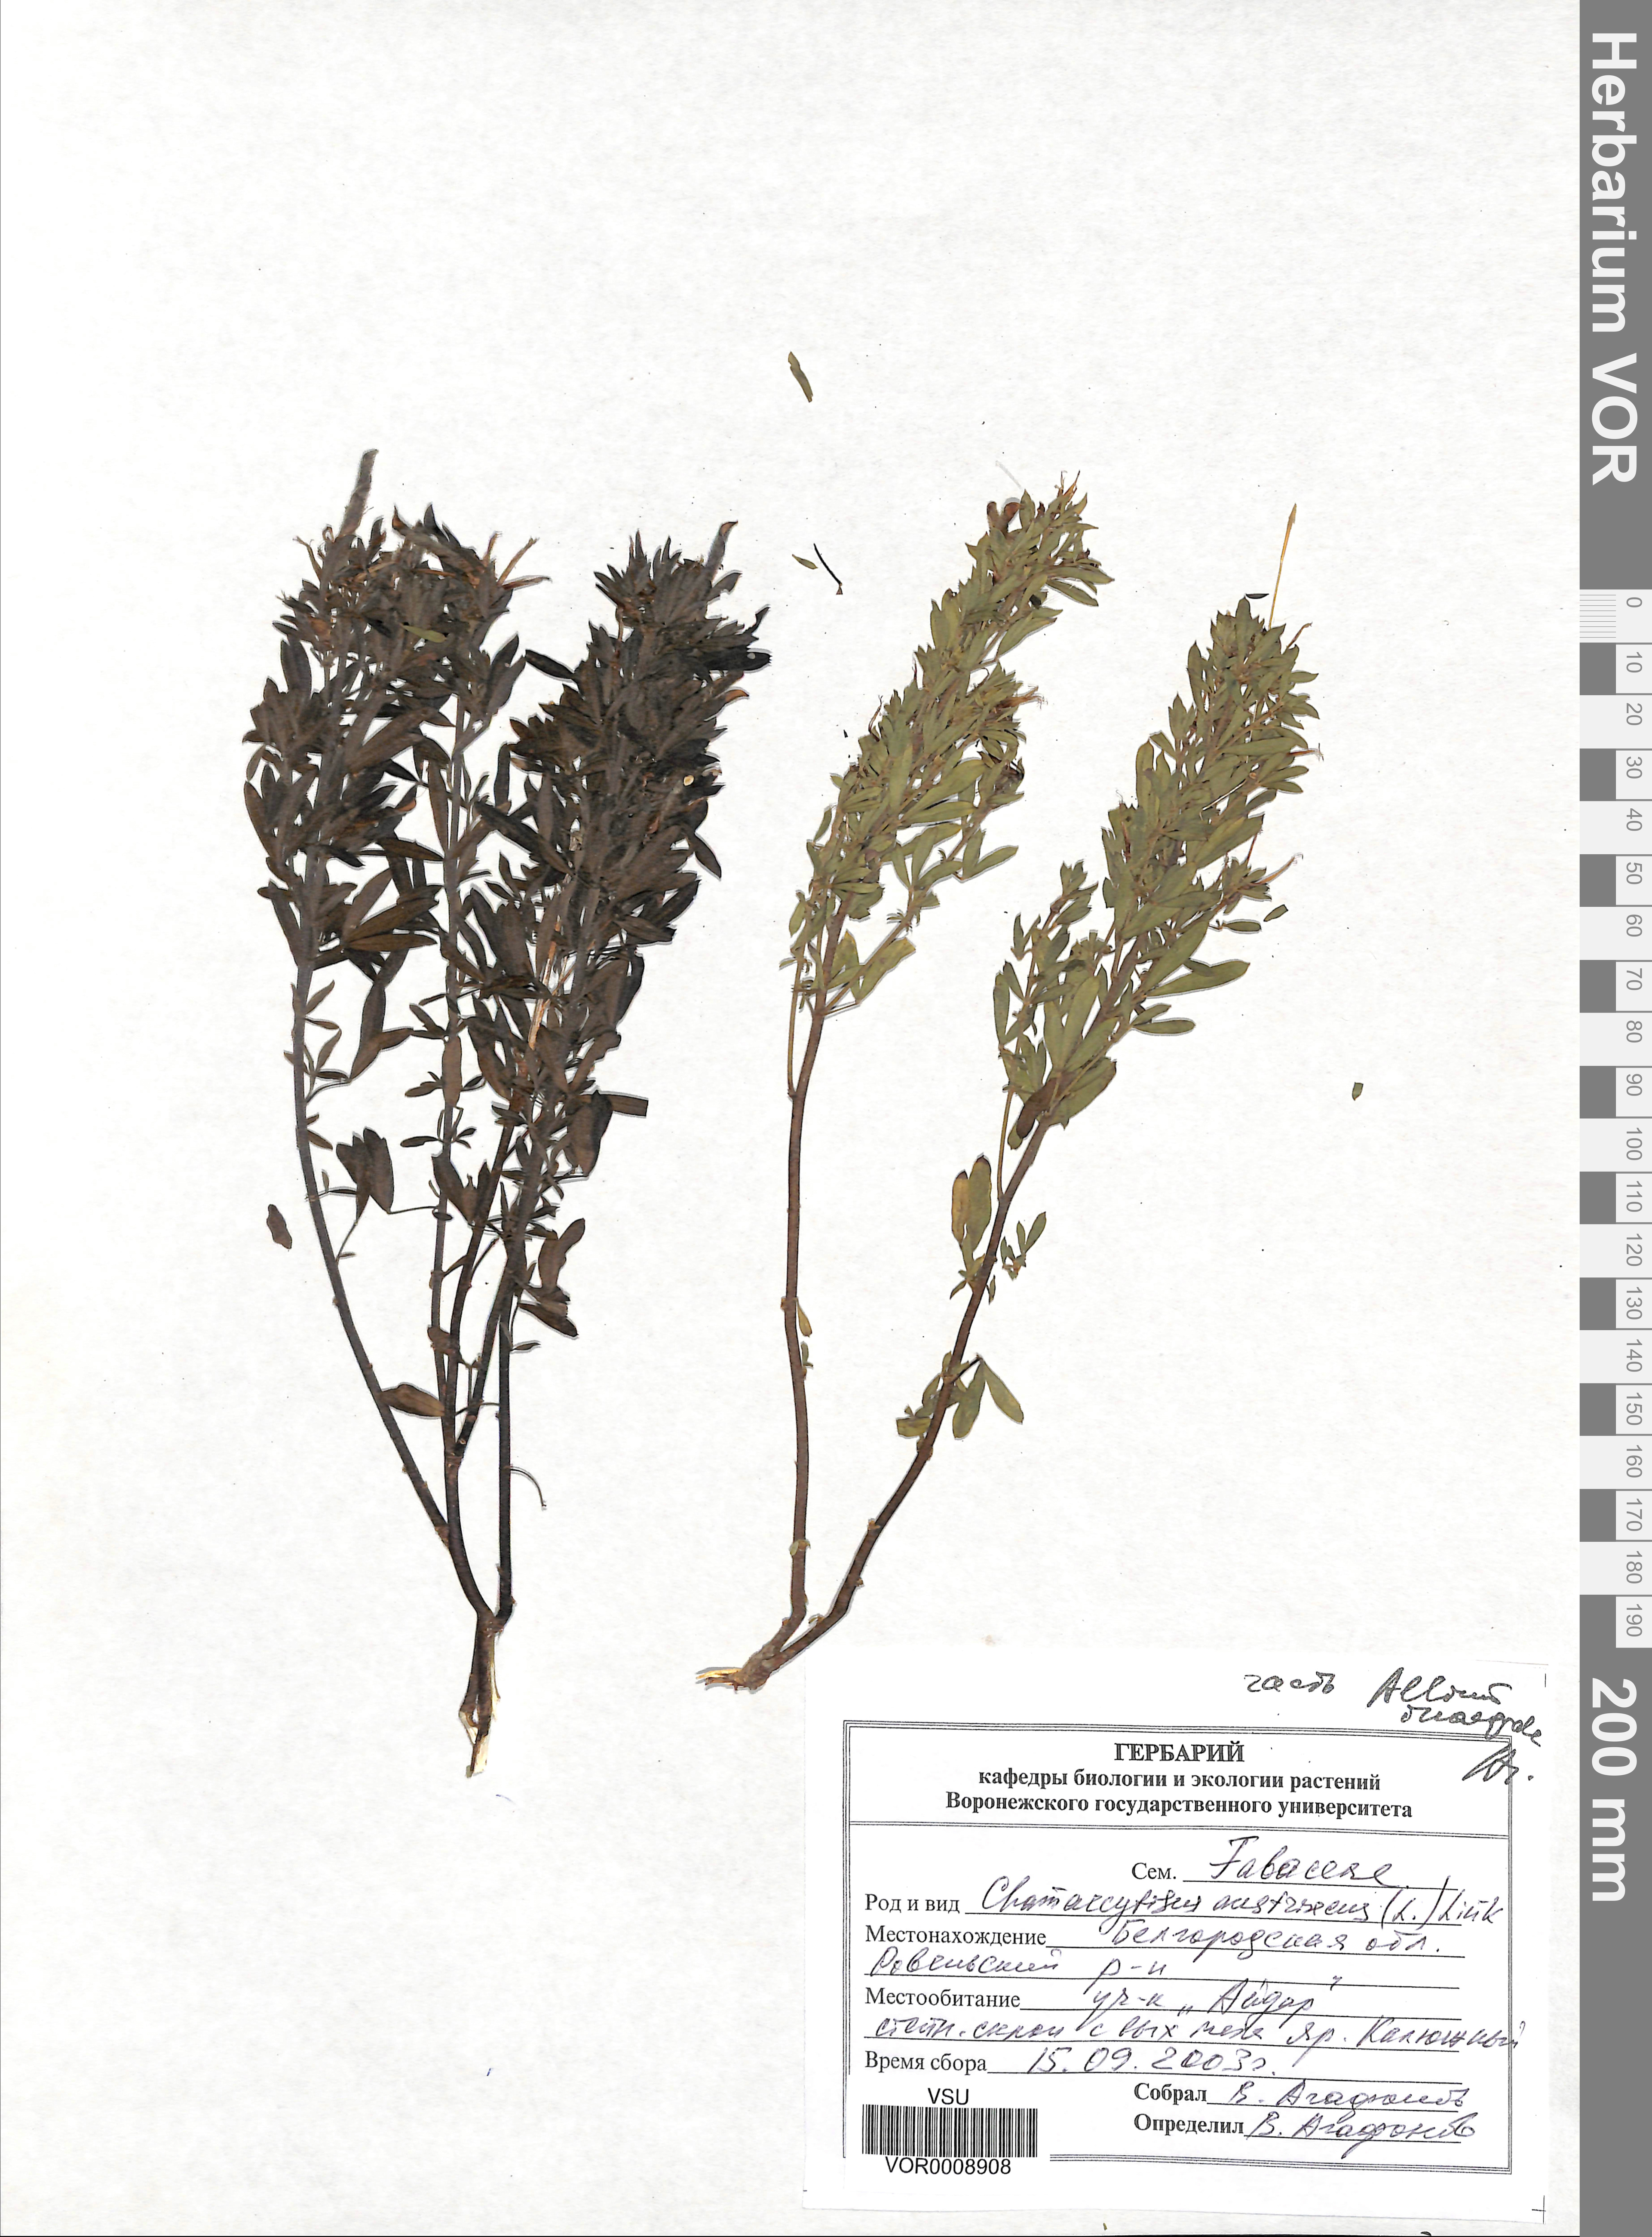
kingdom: Plantae
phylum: Tracheophyta
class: Magnoliopsida
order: Fabales
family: Fabaceae
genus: Chamaecytisus
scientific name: Chamaecytisus austriacus
